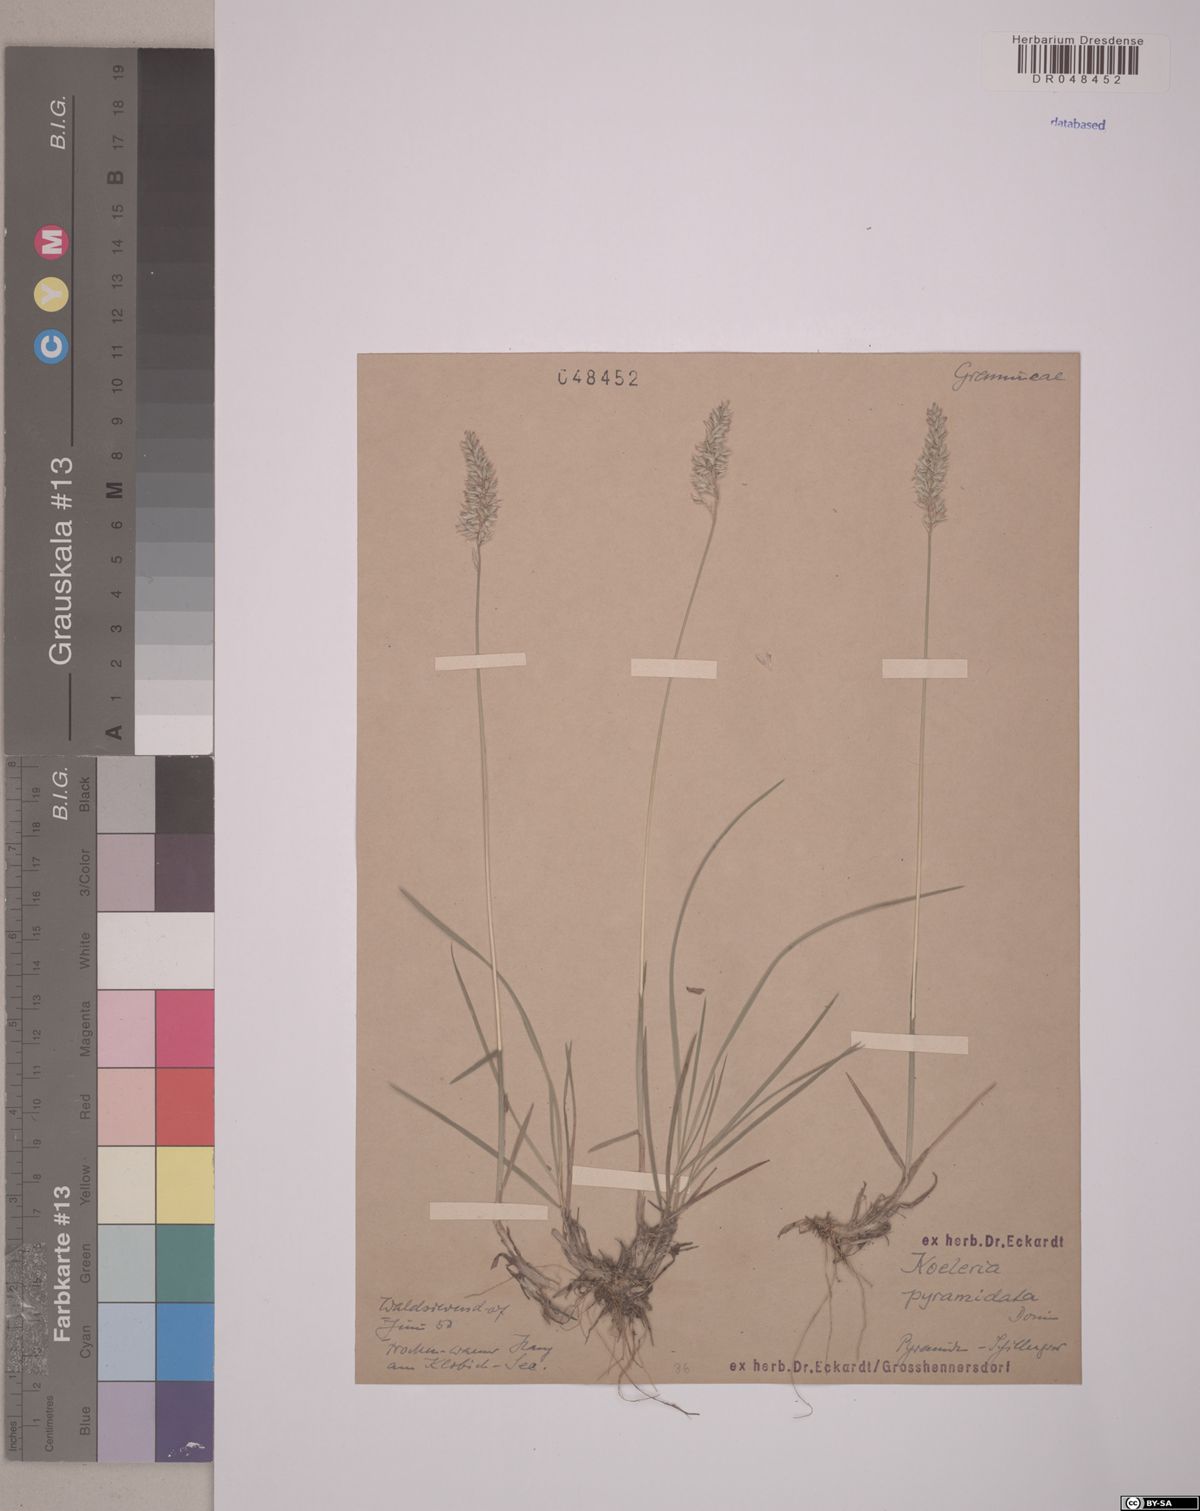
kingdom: Plantae
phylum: Tracheophyta
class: Liliopsida
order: Poales
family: Poaceae
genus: Koeleria
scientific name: Koeleria pyramidata
